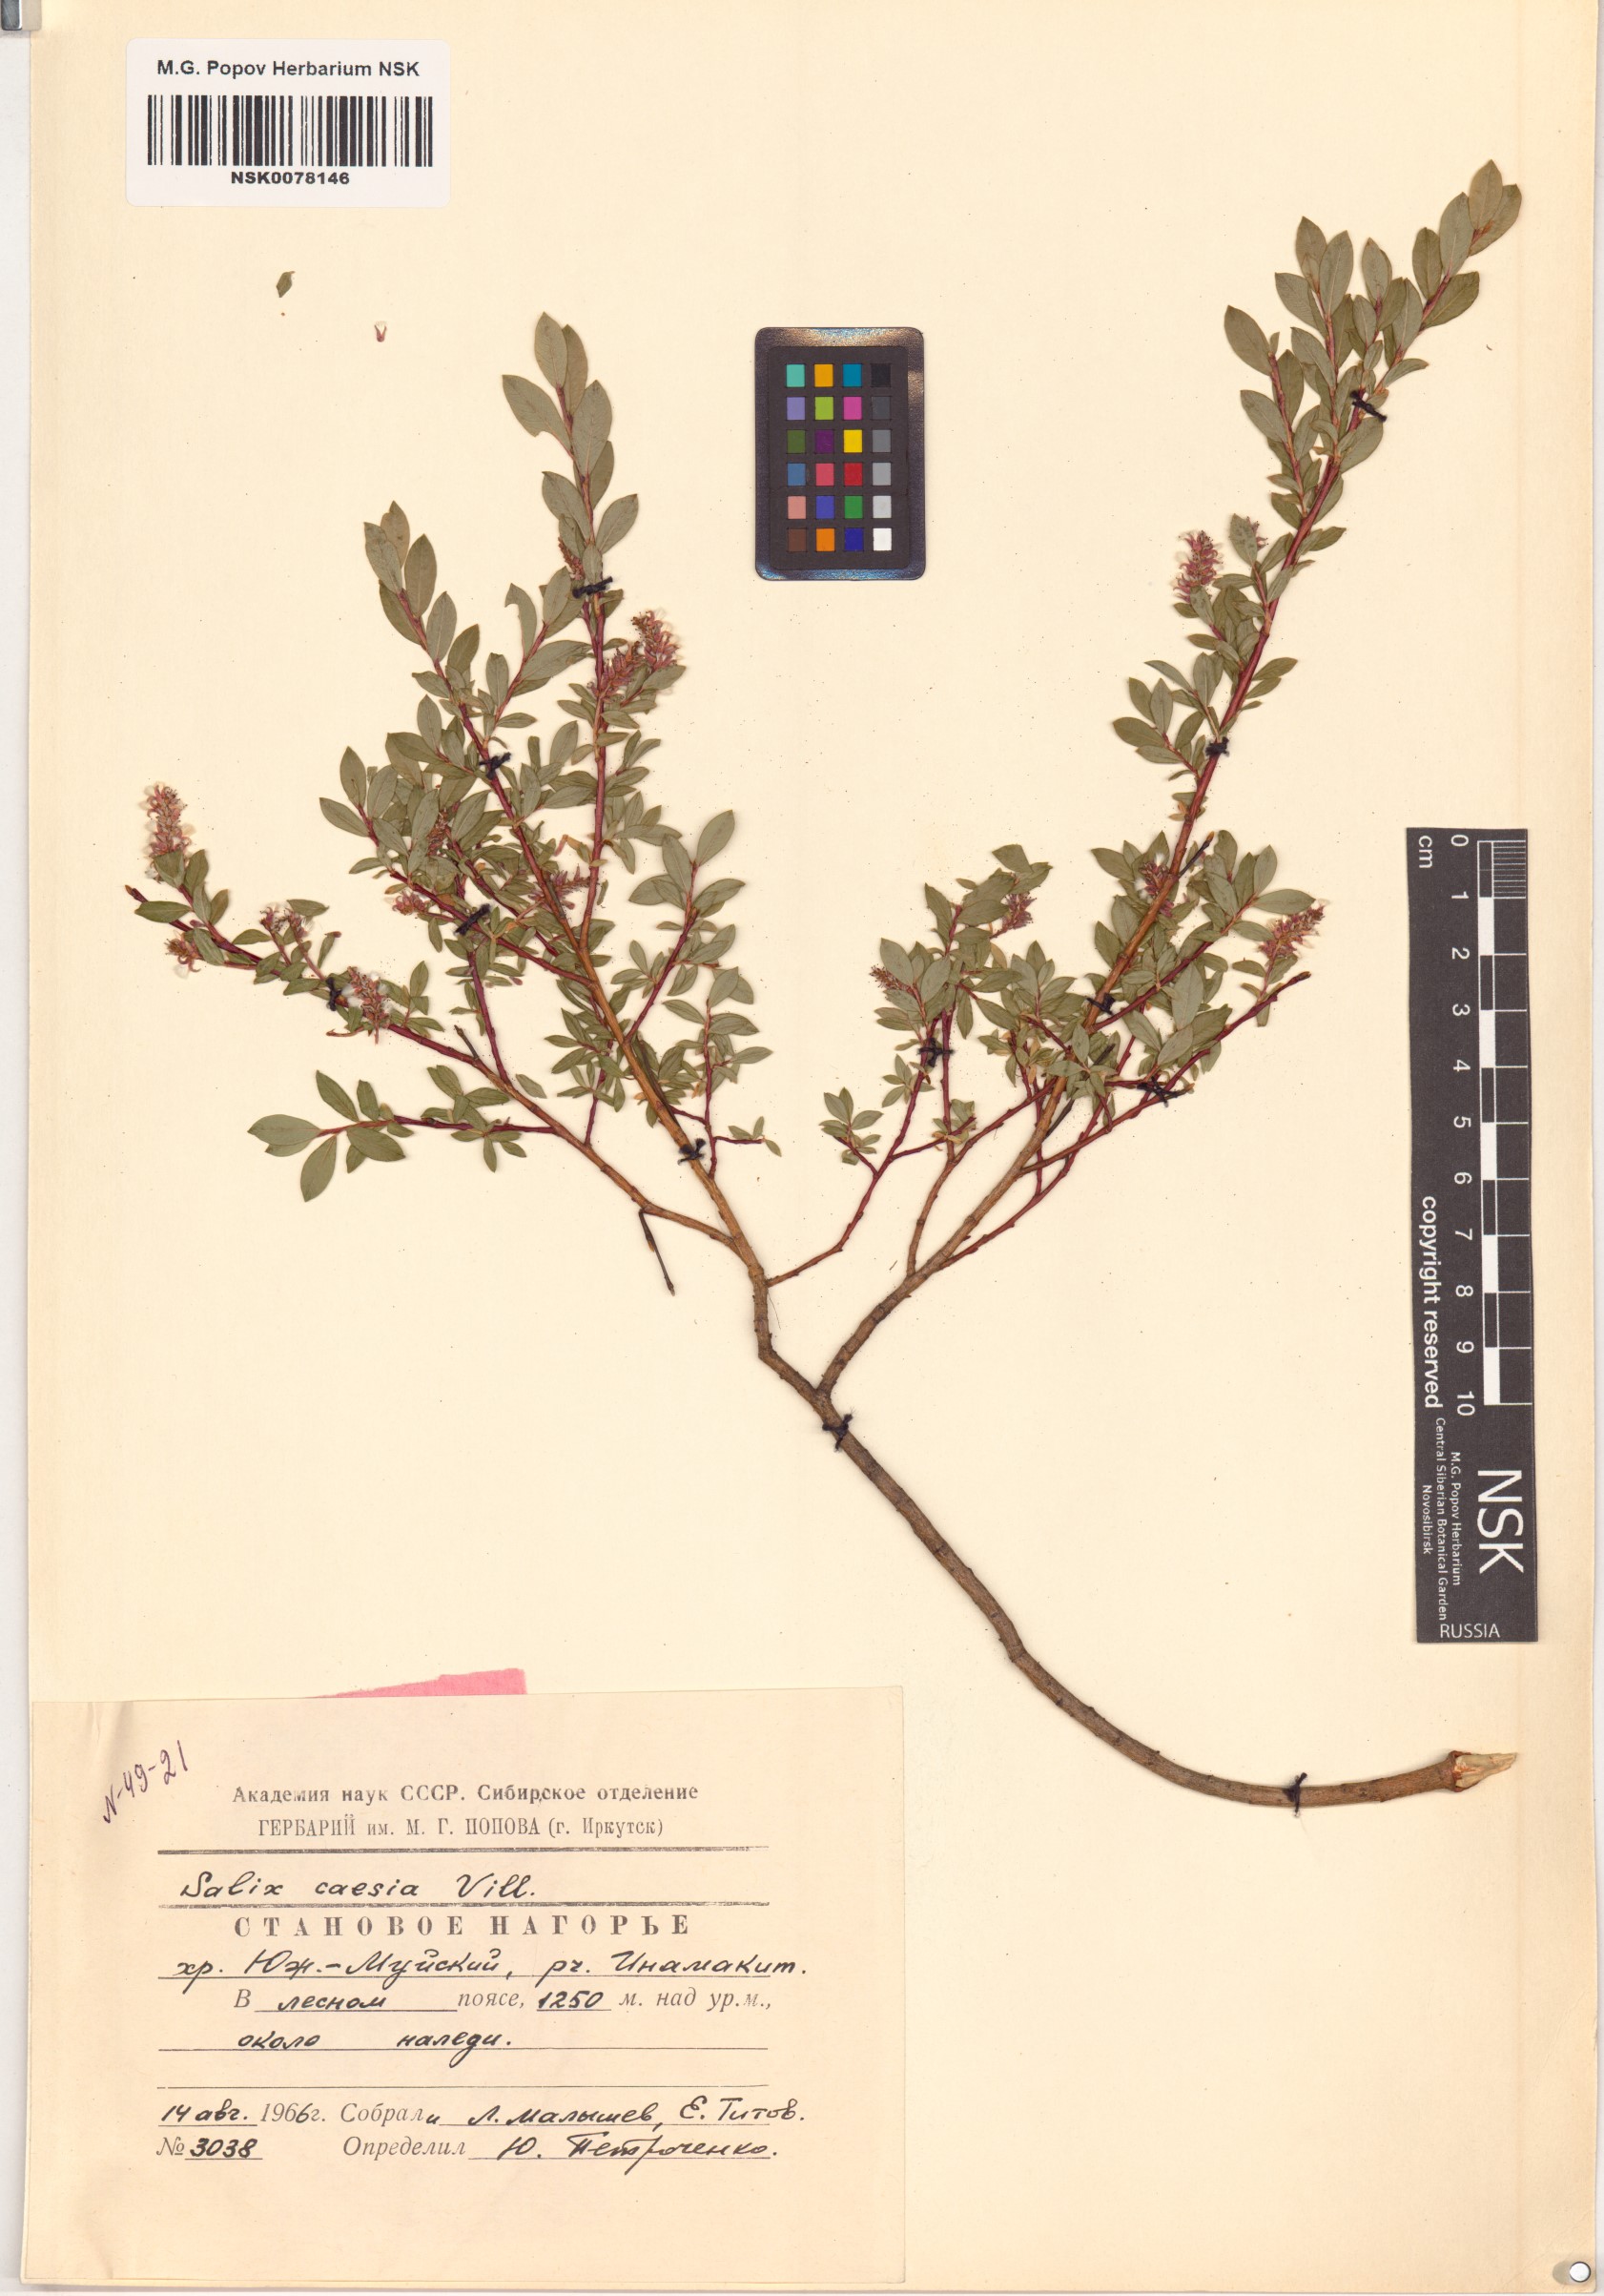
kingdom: Plantae
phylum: Tracheophyta
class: Magnoliopsida
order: Malpighiales
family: Salicaceae
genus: Salix
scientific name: Salix caesia
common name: Blue willow
